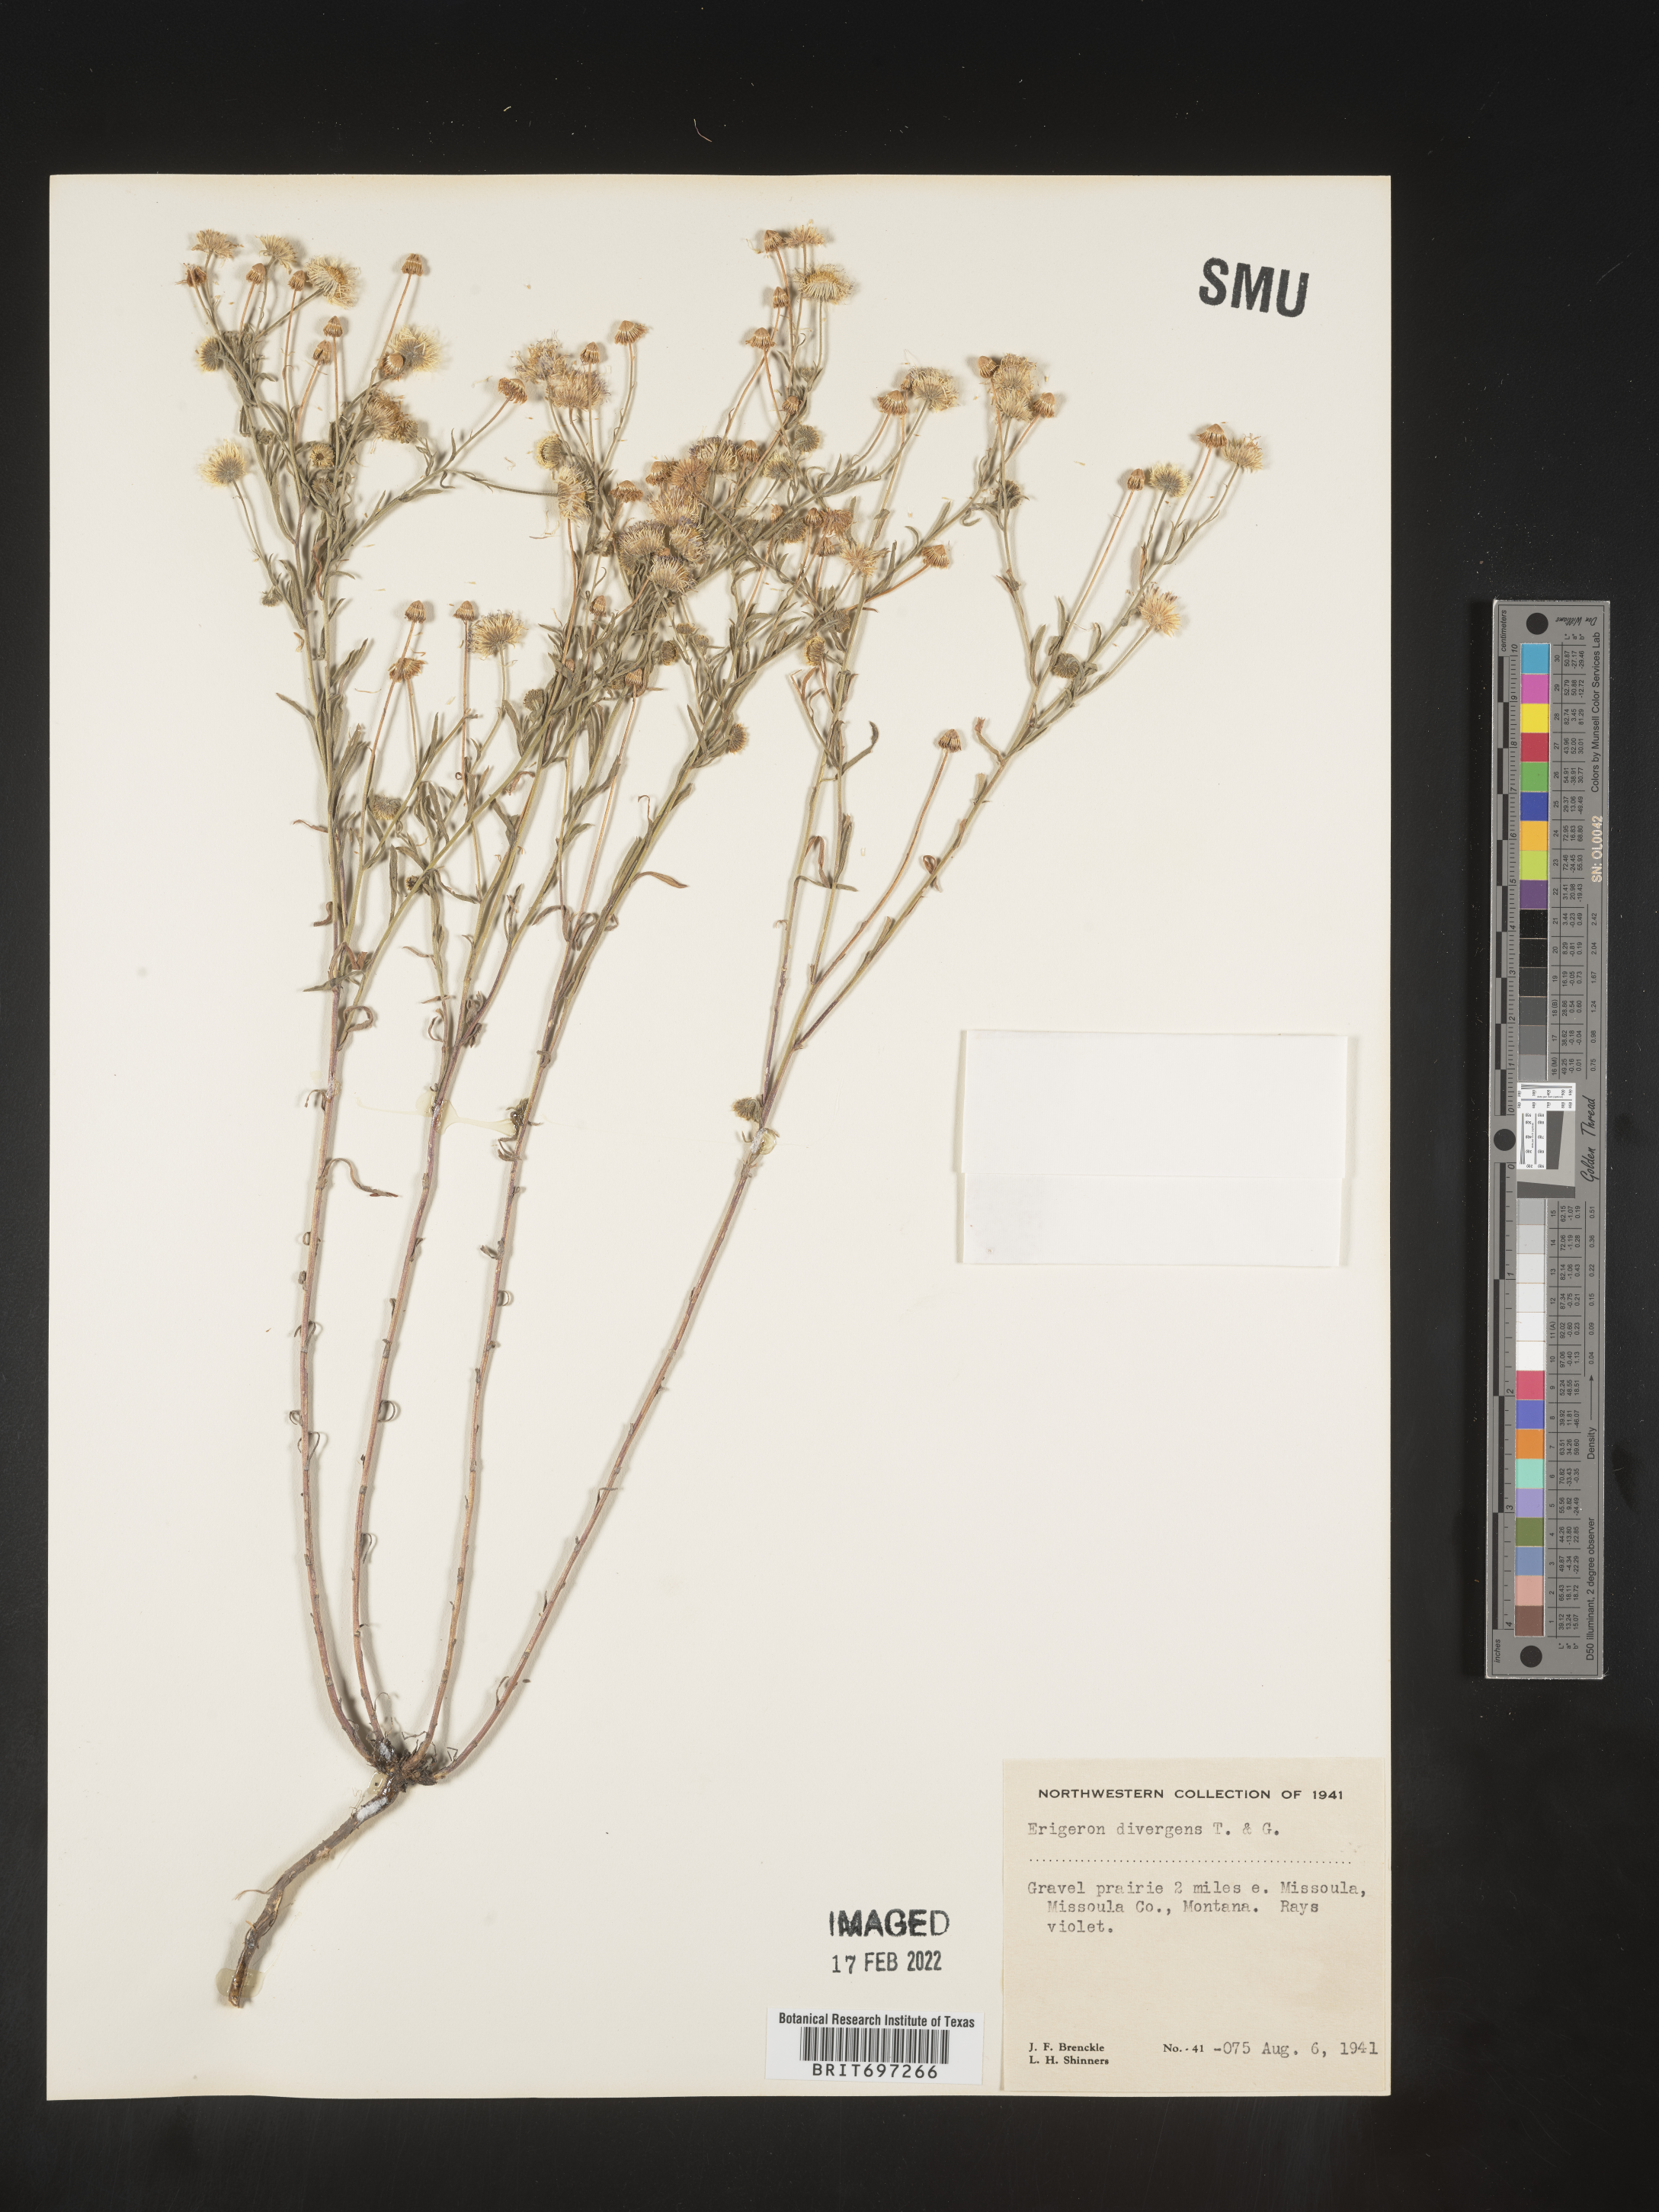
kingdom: Plantae
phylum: Tracheophyta
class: Magnoliopsida
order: Asterales
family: Asteraceae
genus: Erigeron
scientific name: Erigeron divergens
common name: Diffuse fleabane
